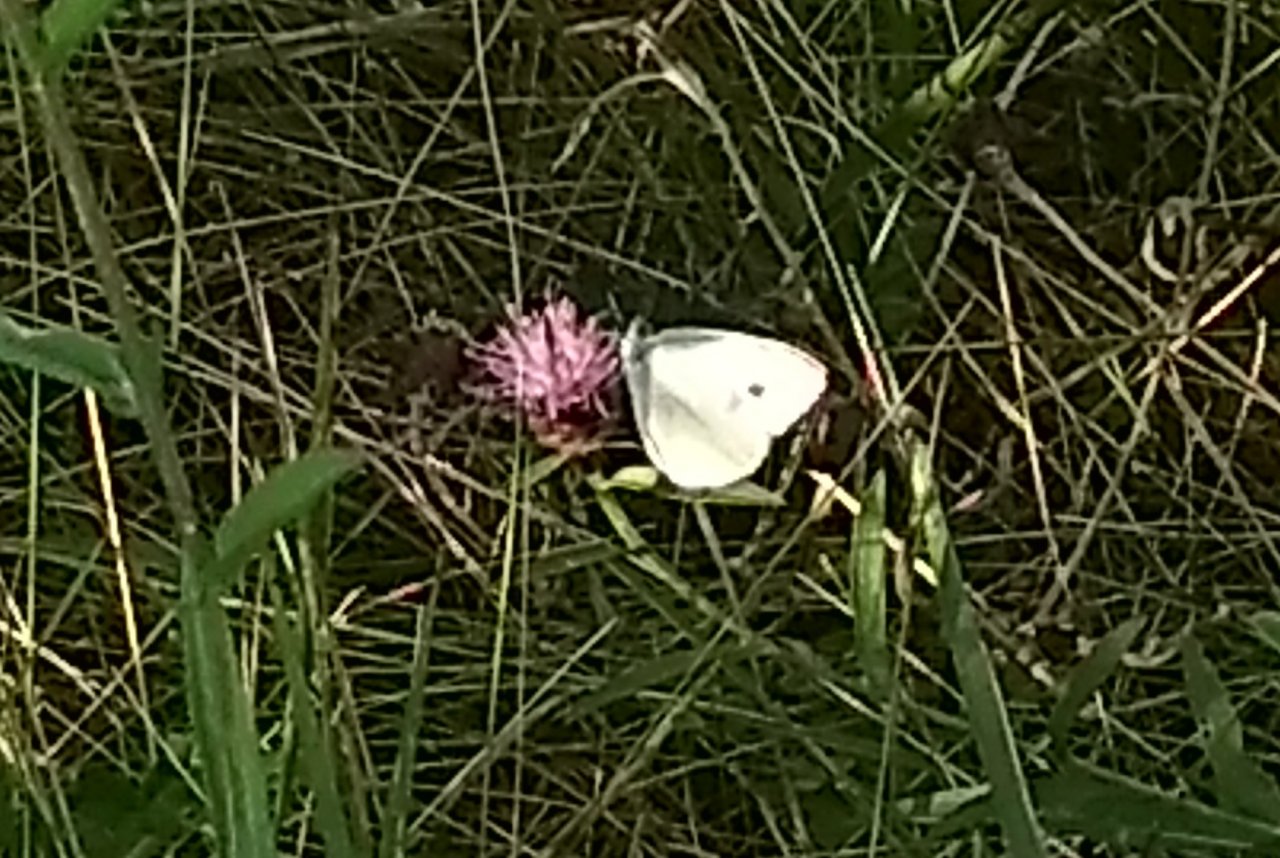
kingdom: Animalia
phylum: Arthropoda
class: Insecta
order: Lepidoptera
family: Pieridae
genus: Pieris
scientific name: Pieris rapae
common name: Cabbage White
